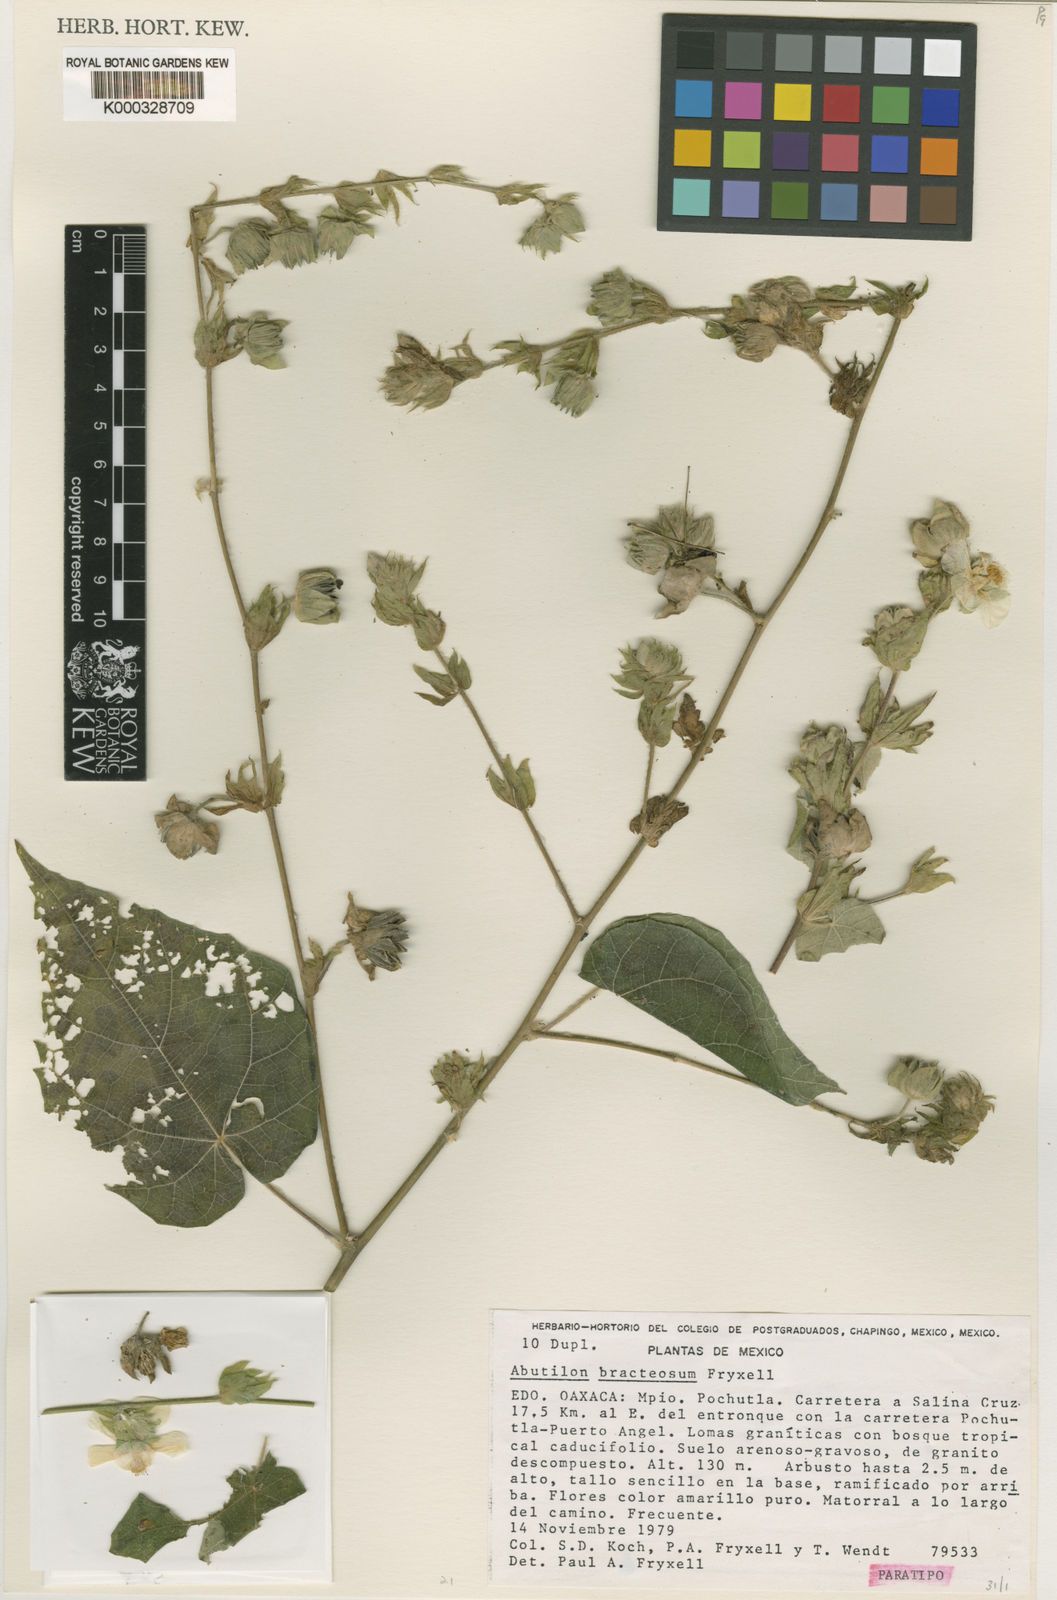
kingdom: Plantae
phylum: Tracheophyta
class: Magnoliopsida
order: Malvales
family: Malvaceae
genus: Abutilon
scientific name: Abutilon bracteosum
